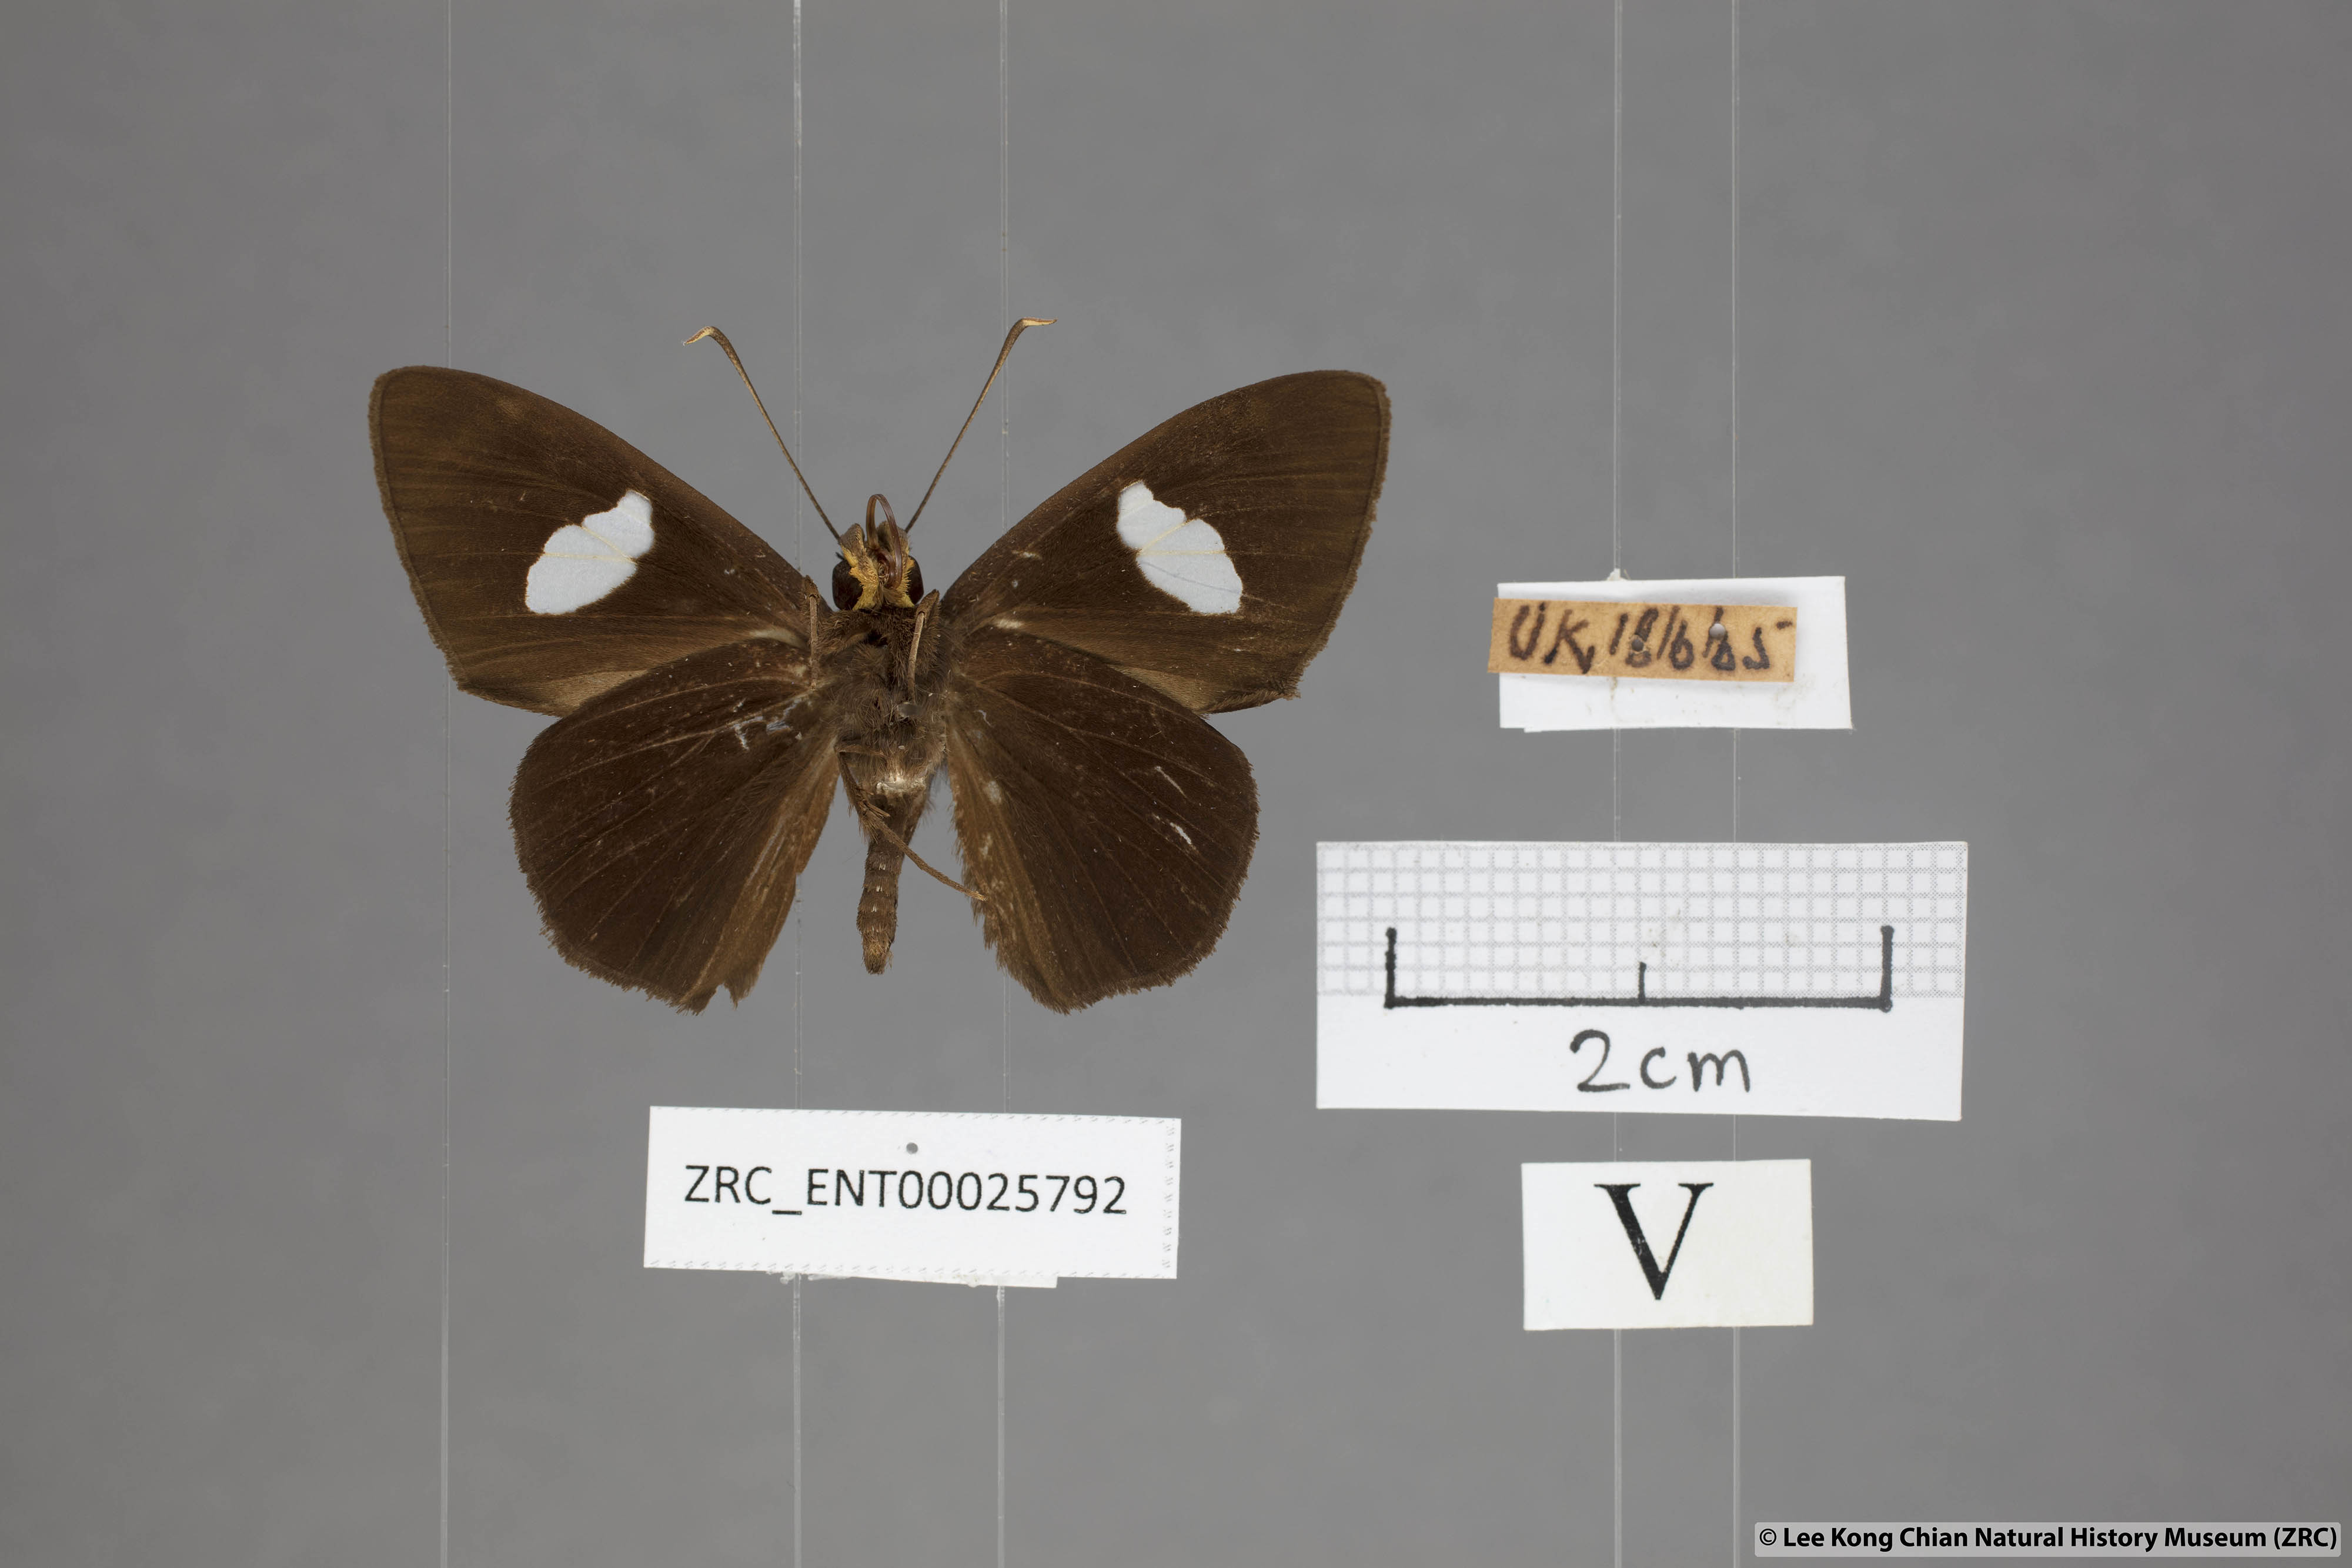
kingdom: Animalia
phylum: Arthropoda
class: Insecta
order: Lepidoptera
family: Hesperiidae
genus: Celaenorrhinus
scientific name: Celaenorrhinus ficulnea
